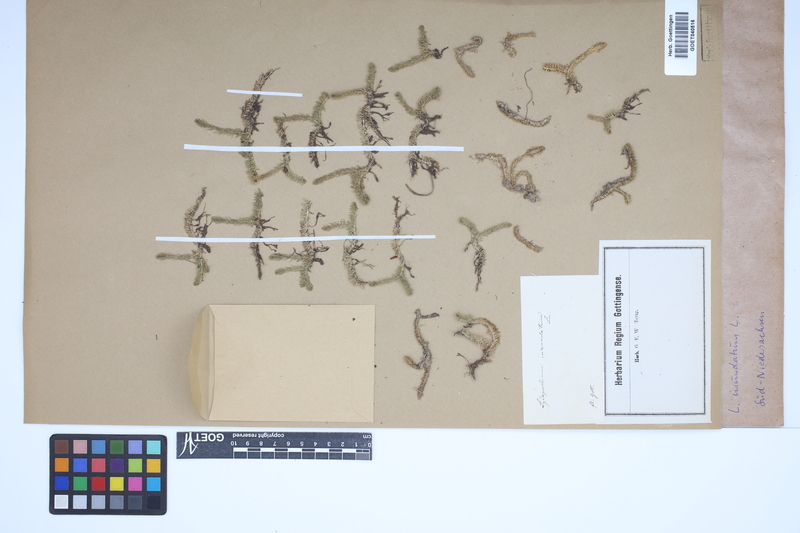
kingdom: Plantae
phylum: Tracheophyta
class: Lycopodiopsida
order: Lycopodiales
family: Lycopodiaceae
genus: Lycopodiella
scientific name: Lycopodiella inundata
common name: Marsh clubmoss
